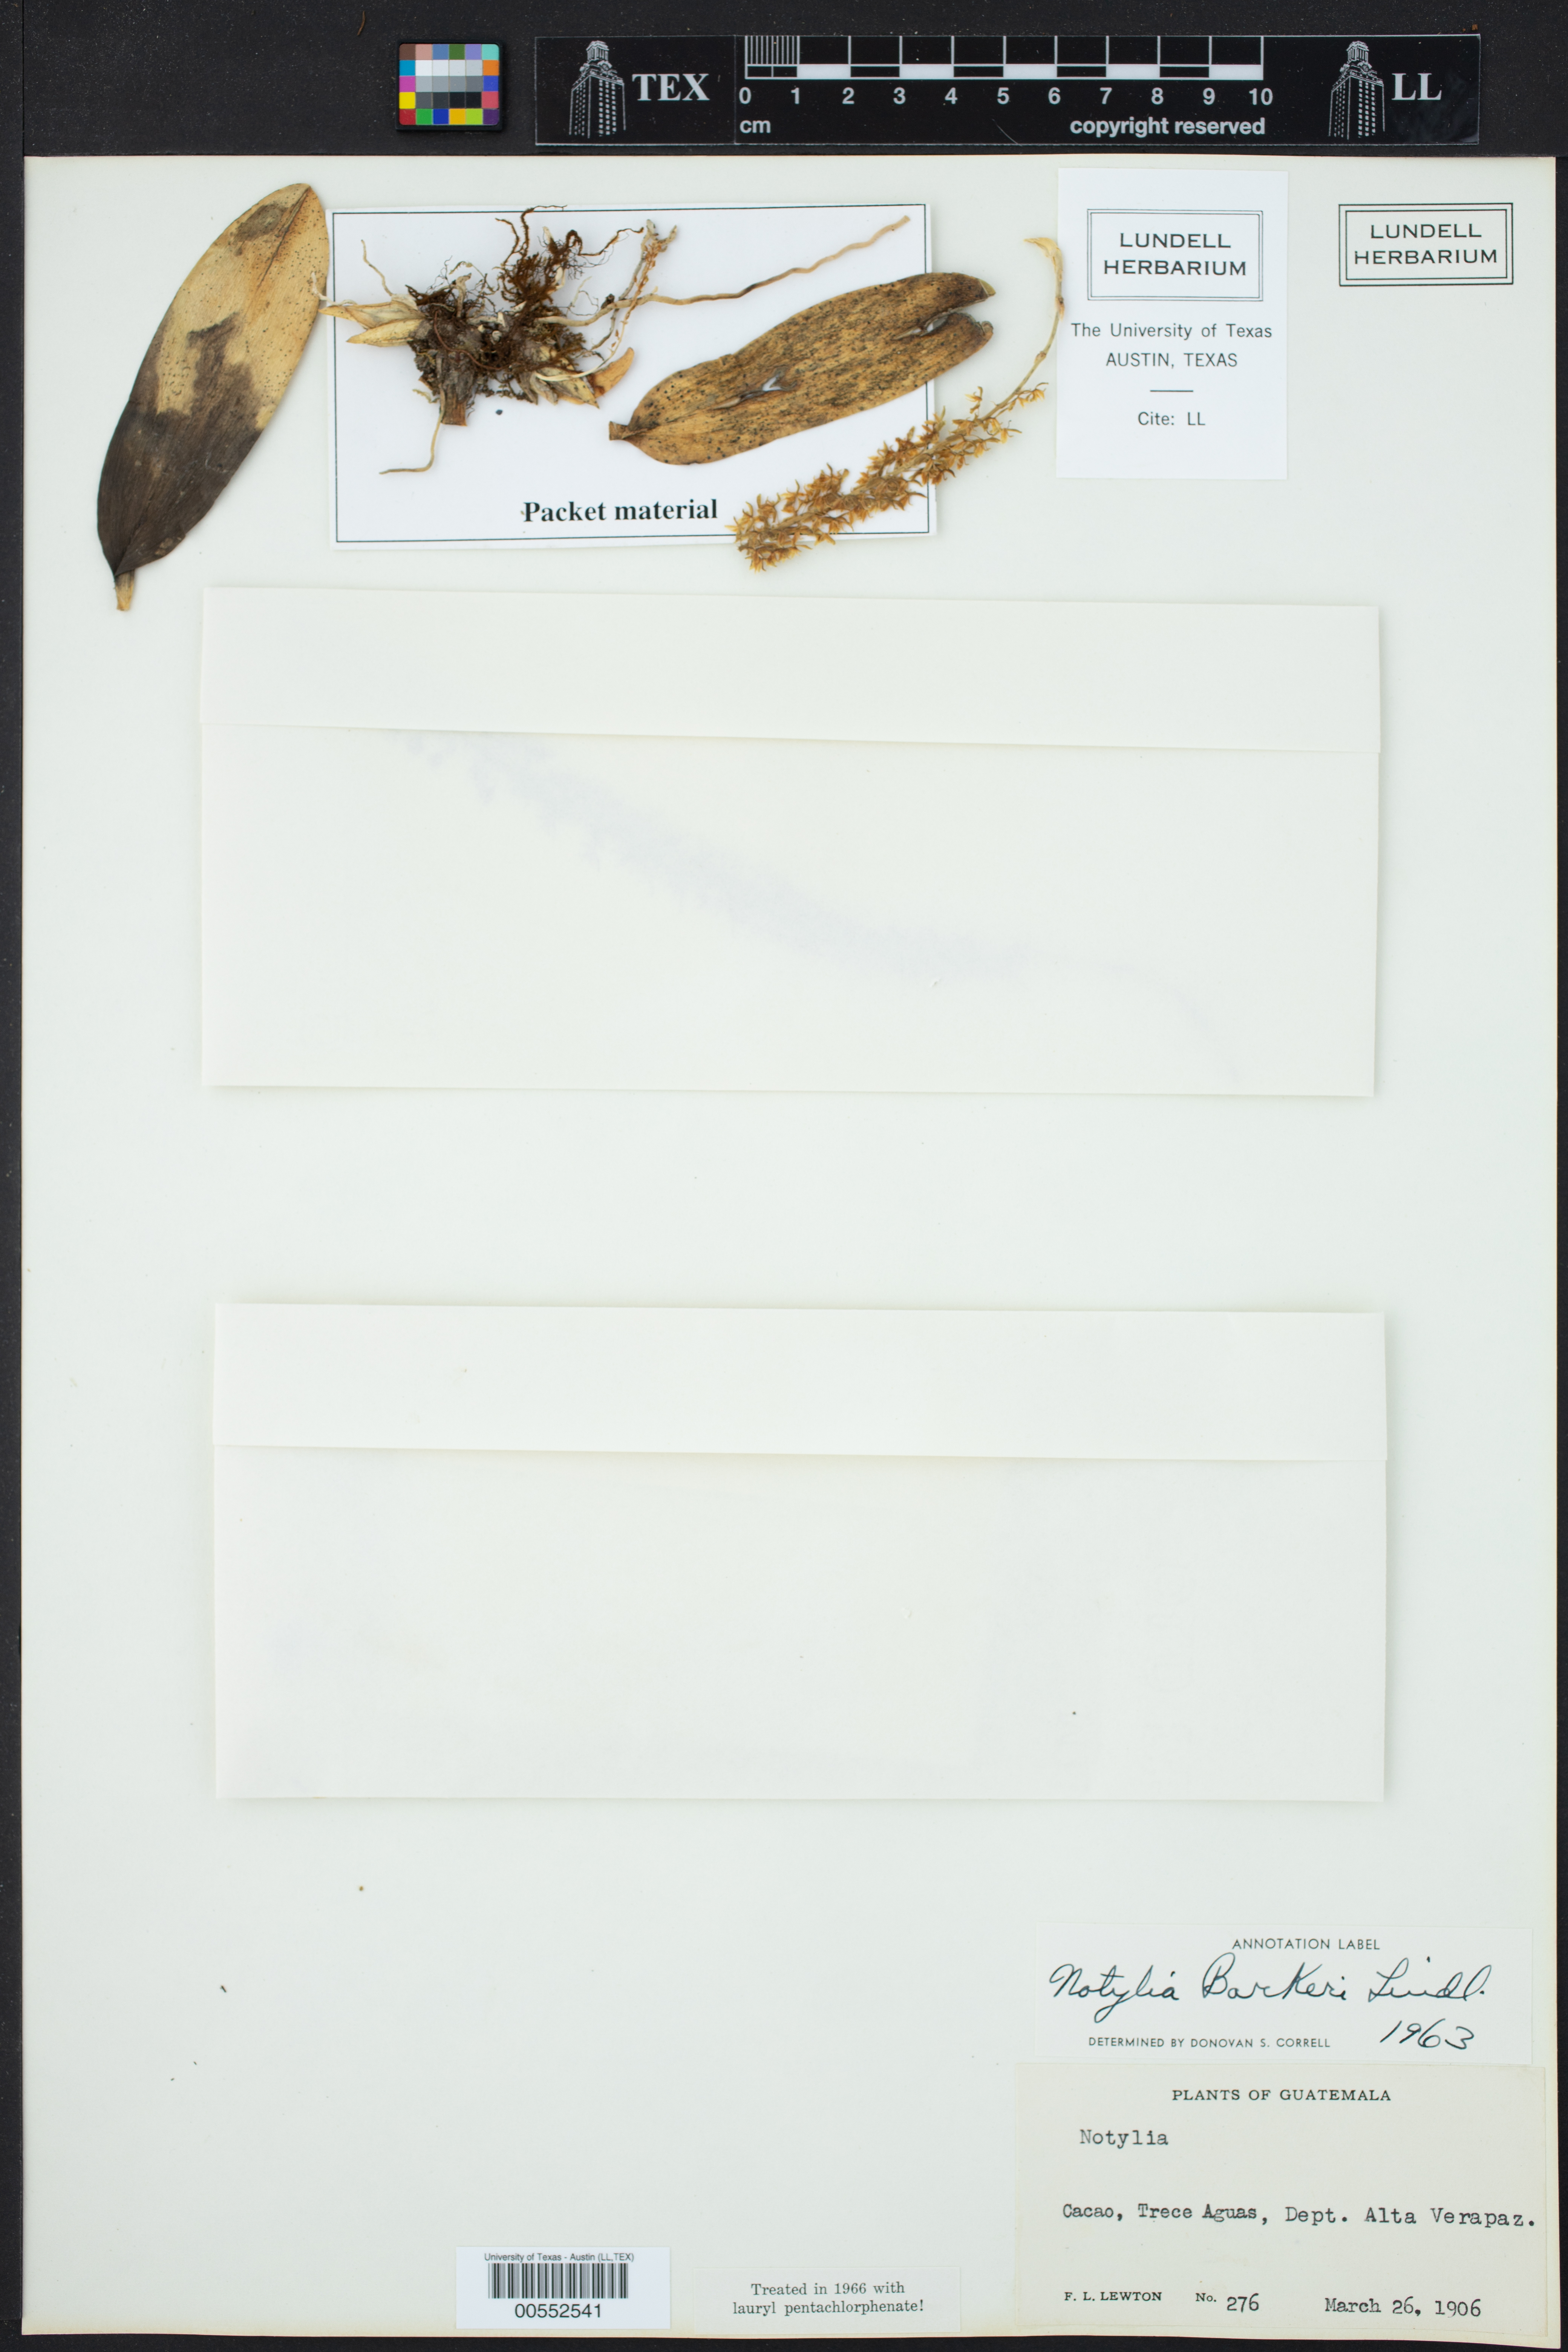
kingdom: Plantae
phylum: Tracheophyta
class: Liliopsida
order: Asparagales
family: Orchidaceae
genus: Notylia
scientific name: Notylia
